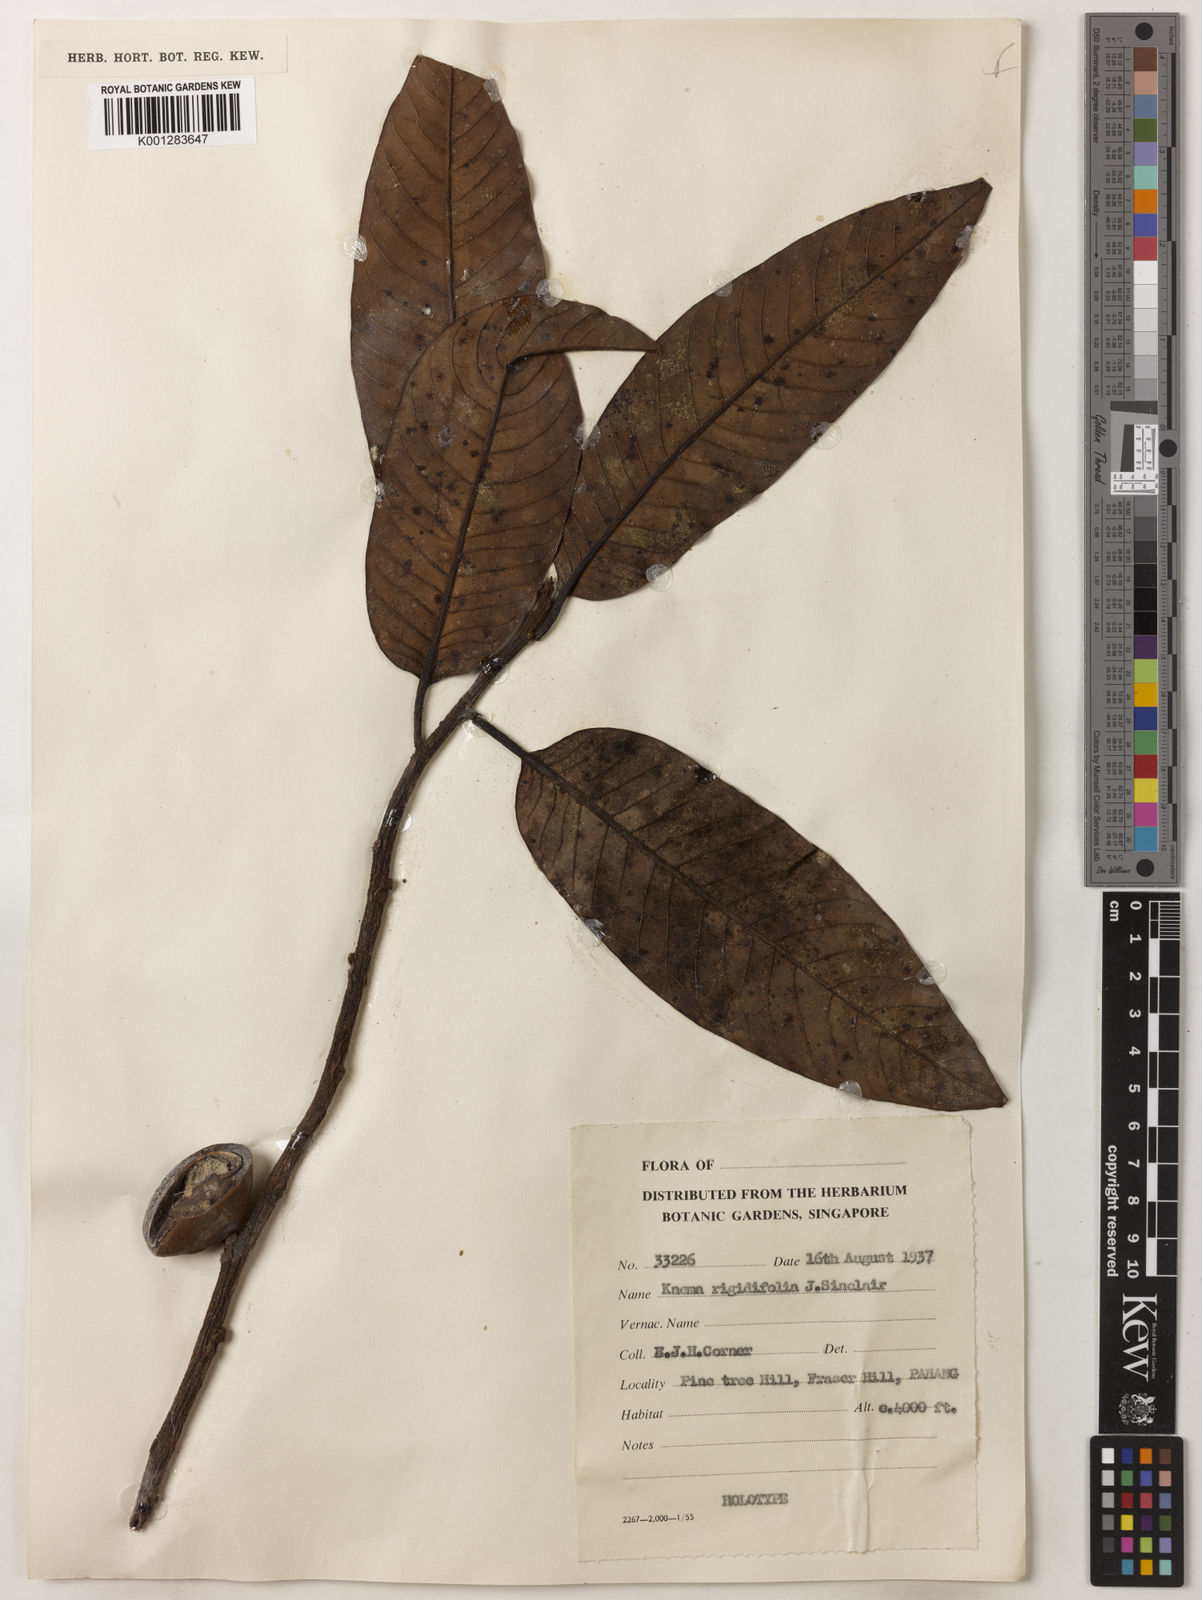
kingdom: Plantae
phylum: Tracheophyta
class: Magnoliopsida
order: Magnoliales
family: Myristicaceae
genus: Knema
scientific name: Knema rigidifolia
